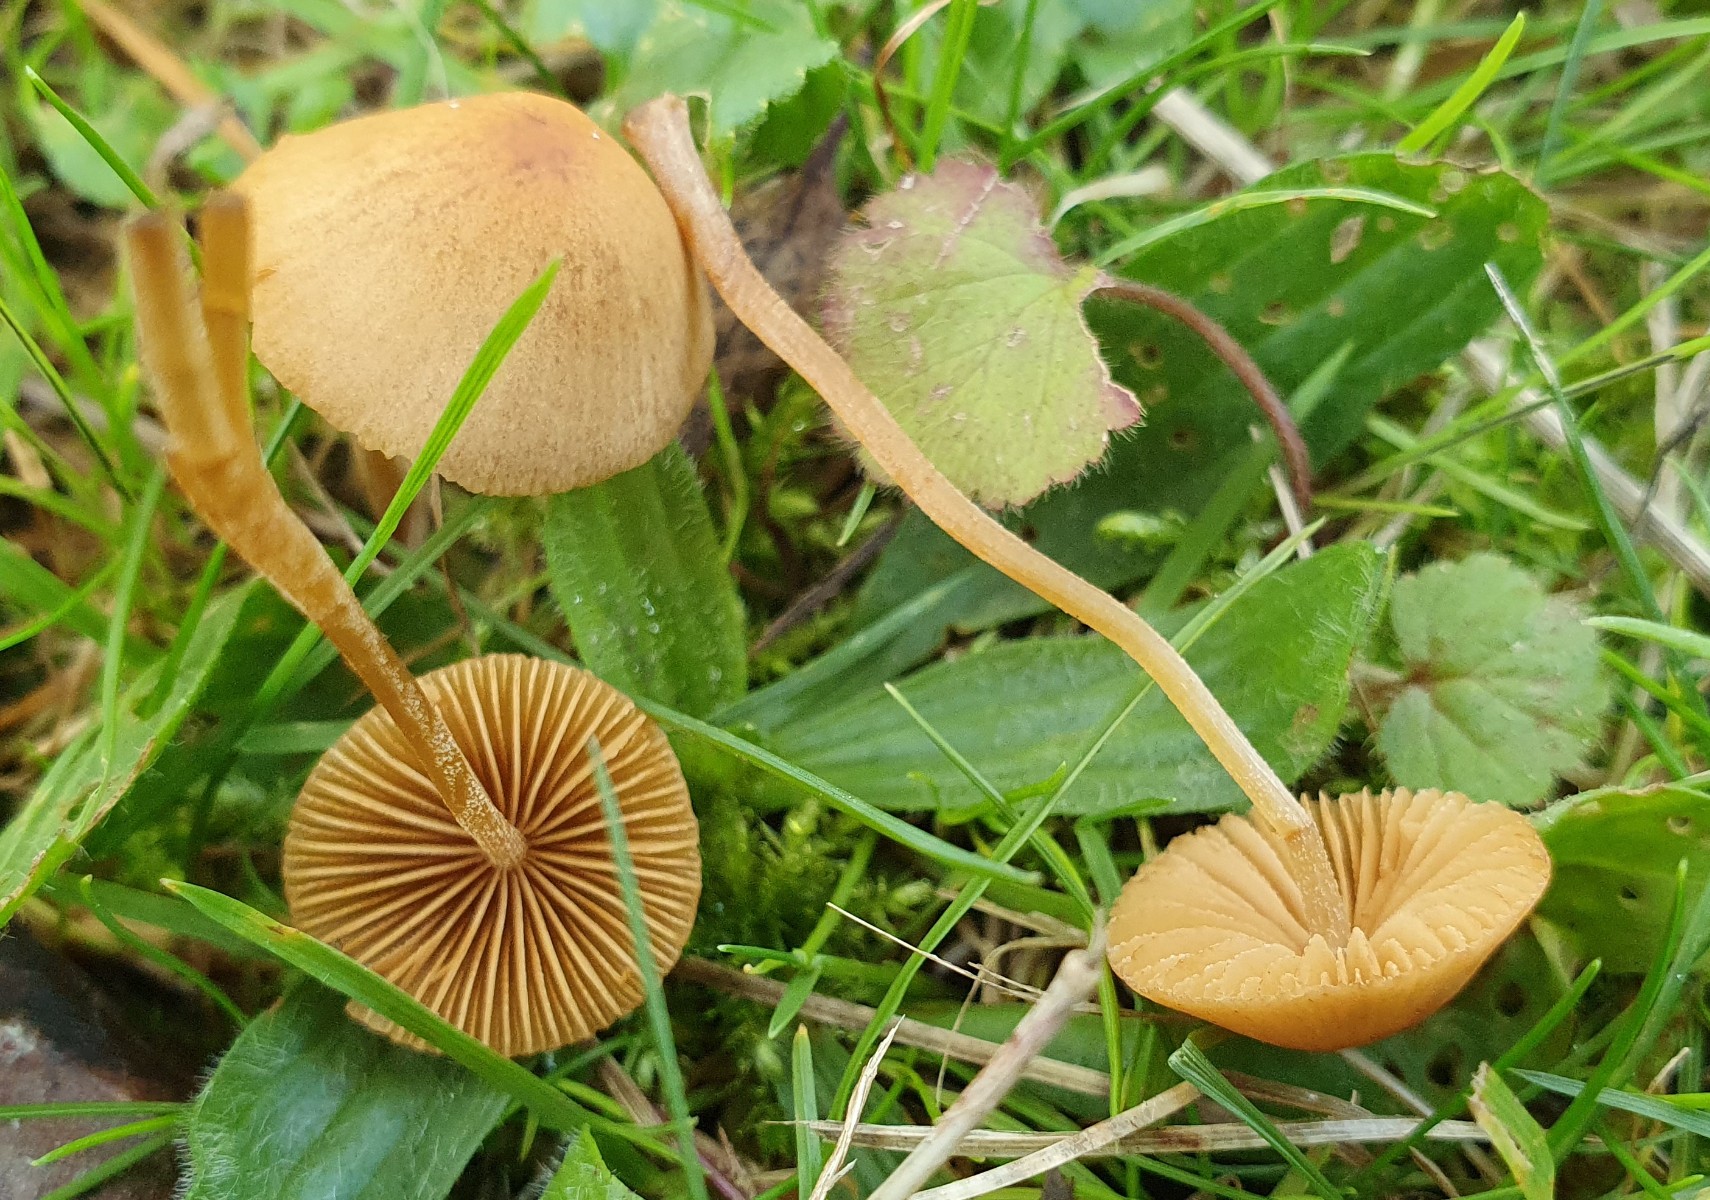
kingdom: Fungi
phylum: Basidiomycota
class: Agaricomycetes
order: Agaricales
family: Hymenogastraceae
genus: Galerina
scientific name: Galerina
